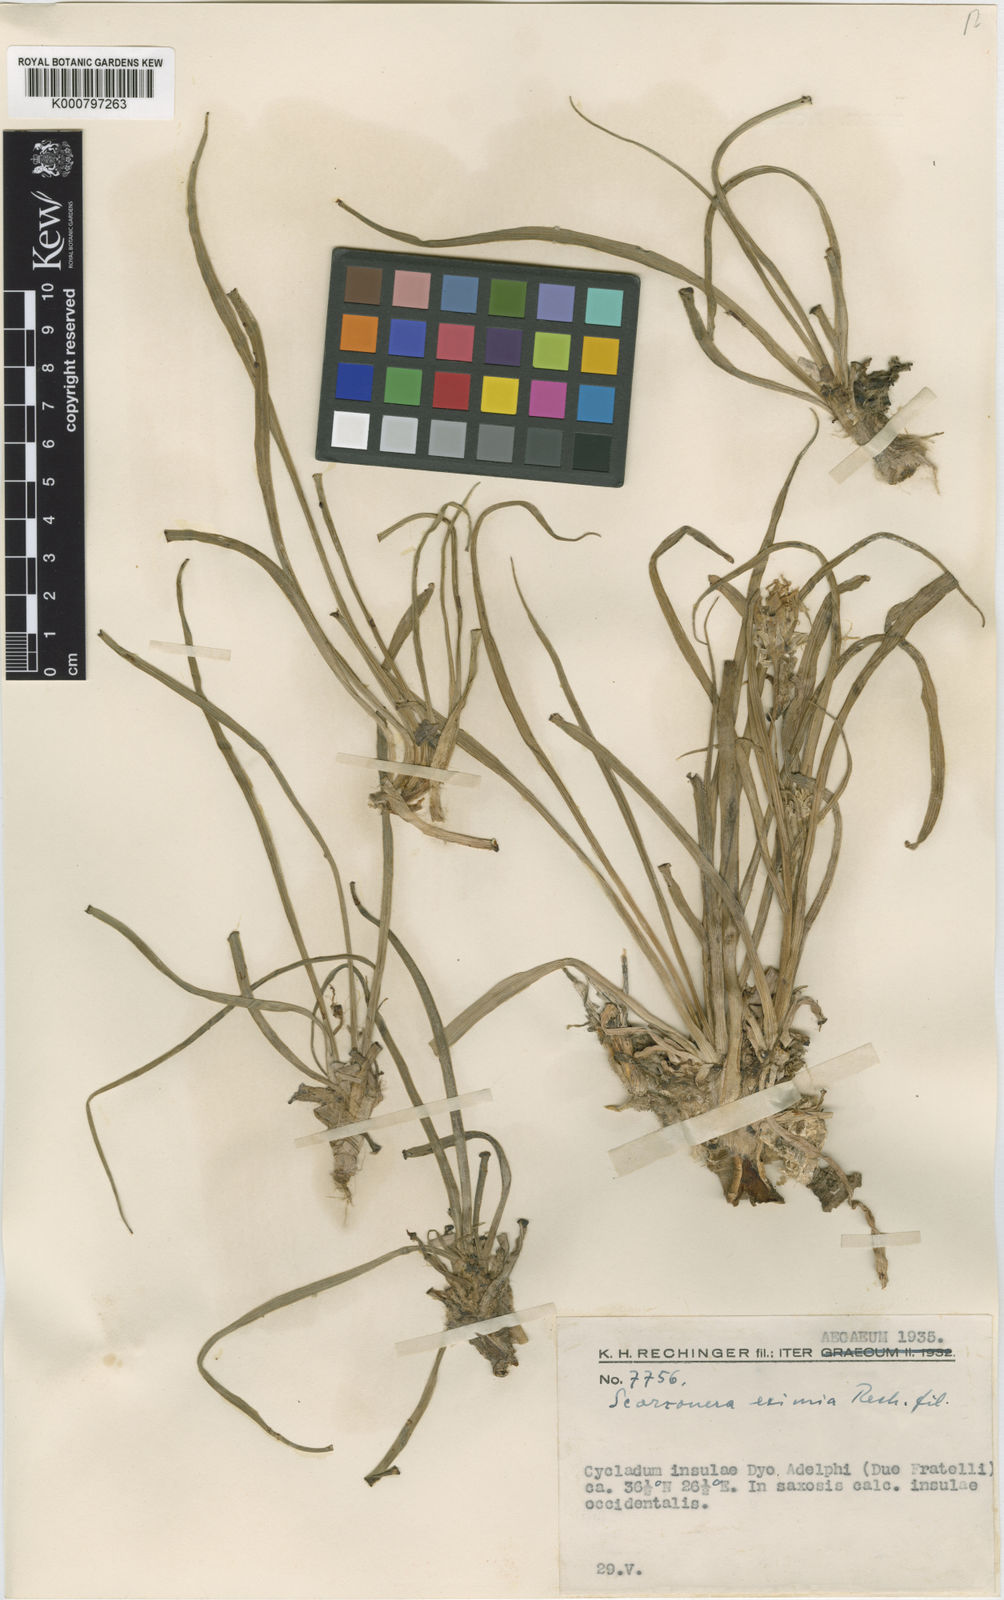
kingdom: Plantae
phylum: Tracheophyta
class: Magnoliopsida
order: Asterales
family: Asteraceae
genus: Gelasia
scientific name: Gelasia araneosa
